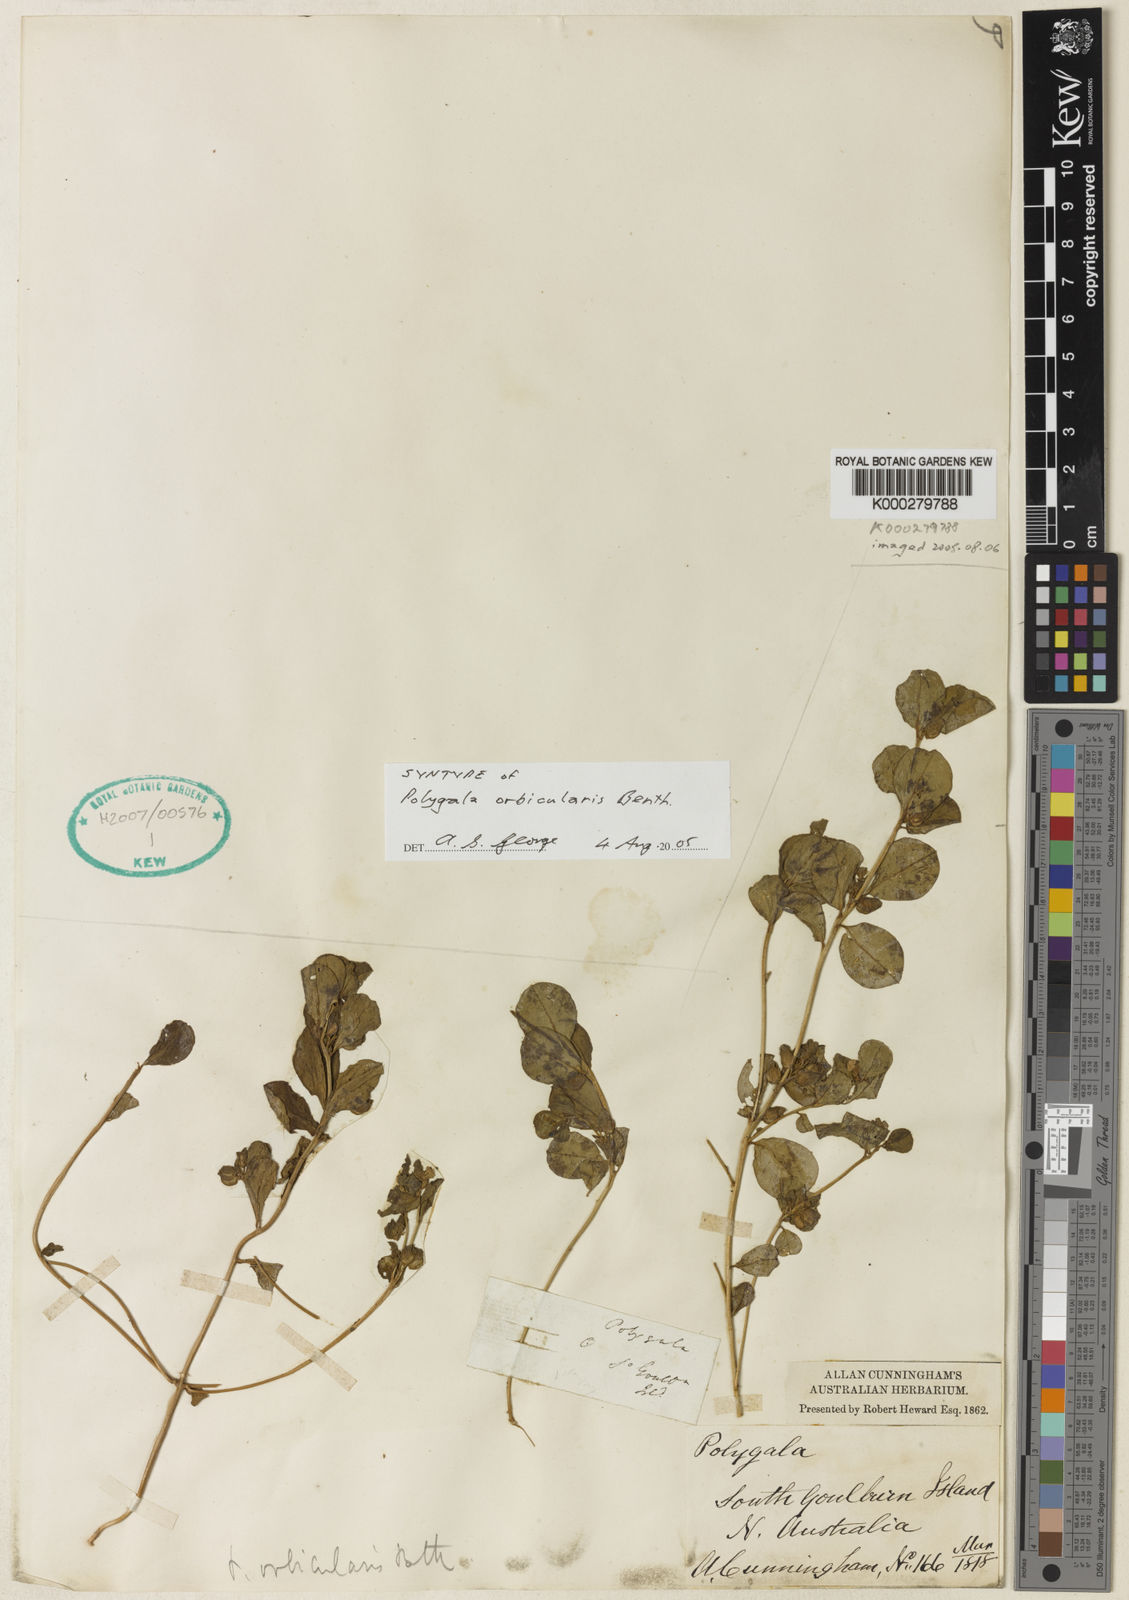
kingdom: Plantae
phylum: Tracheophyta
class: Magnoliopsida
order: Fabales
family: Polygalaceae
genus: Polygala
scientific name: Polygala orbicularis
